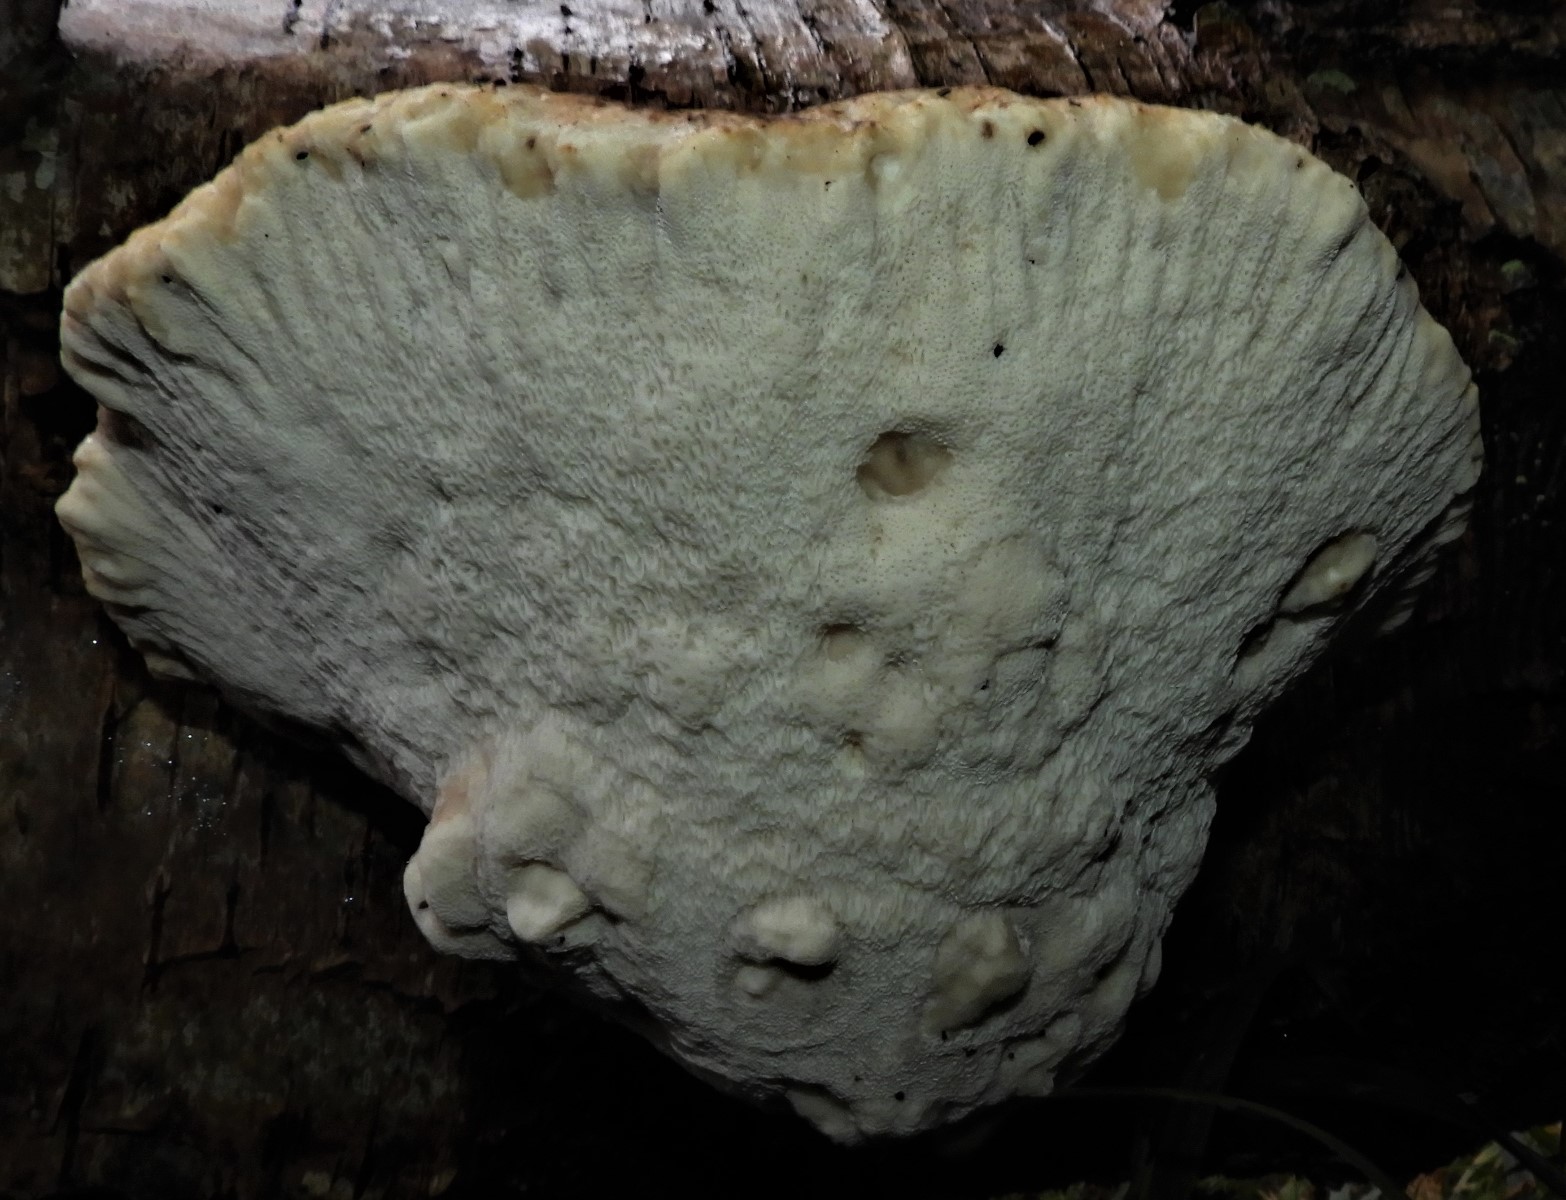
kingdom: Fungi
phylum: Basidiomycota
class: Agaricomycetes
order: Polyporales
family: Fomitopsidaceae
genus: Fomitopsis
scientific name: Fomitopsis betulina
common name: birkeporesvamp
